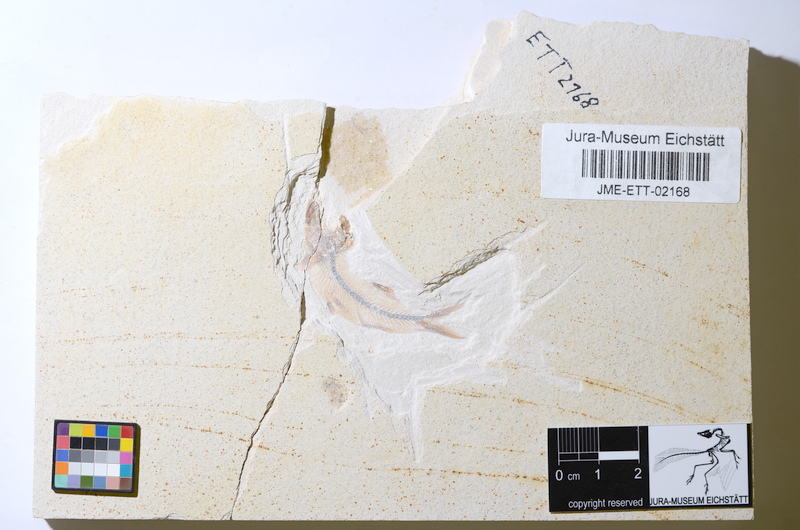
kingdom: Animalia
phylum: Chordata
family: Ascalaboidae
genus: Ebertichthys
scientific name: Ebertichthys ettlingensis
